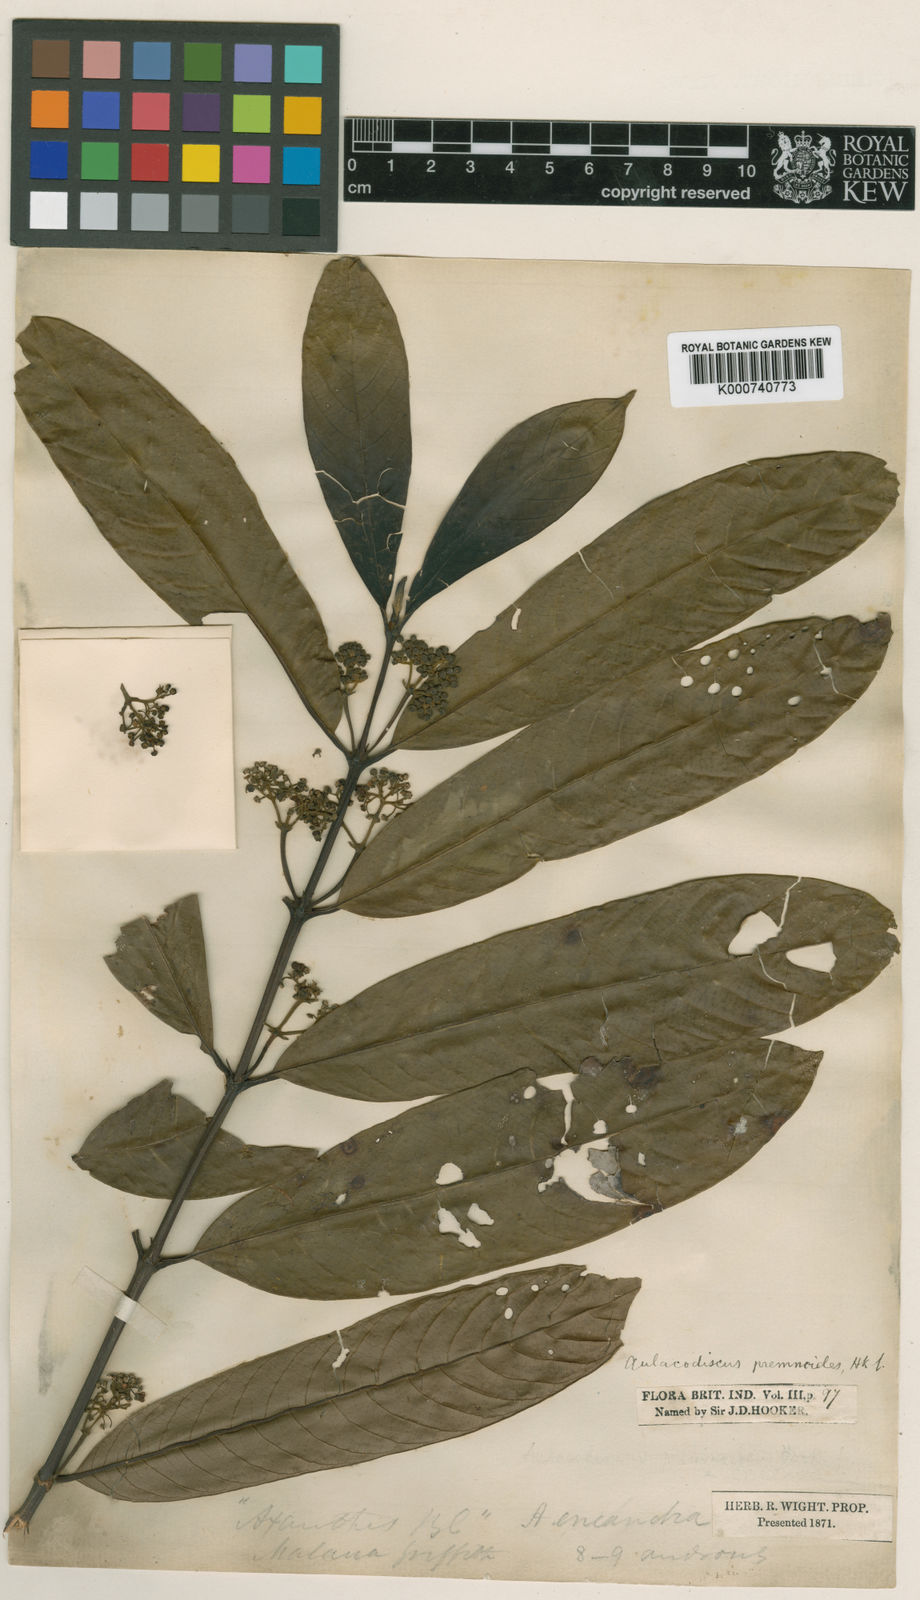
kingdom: Plantae
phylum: Tracheophyta
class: Magnoliopsida
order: Gentianales
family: Rubiaceae
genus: Urophyllum
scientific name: Urophyllum enneandrum
